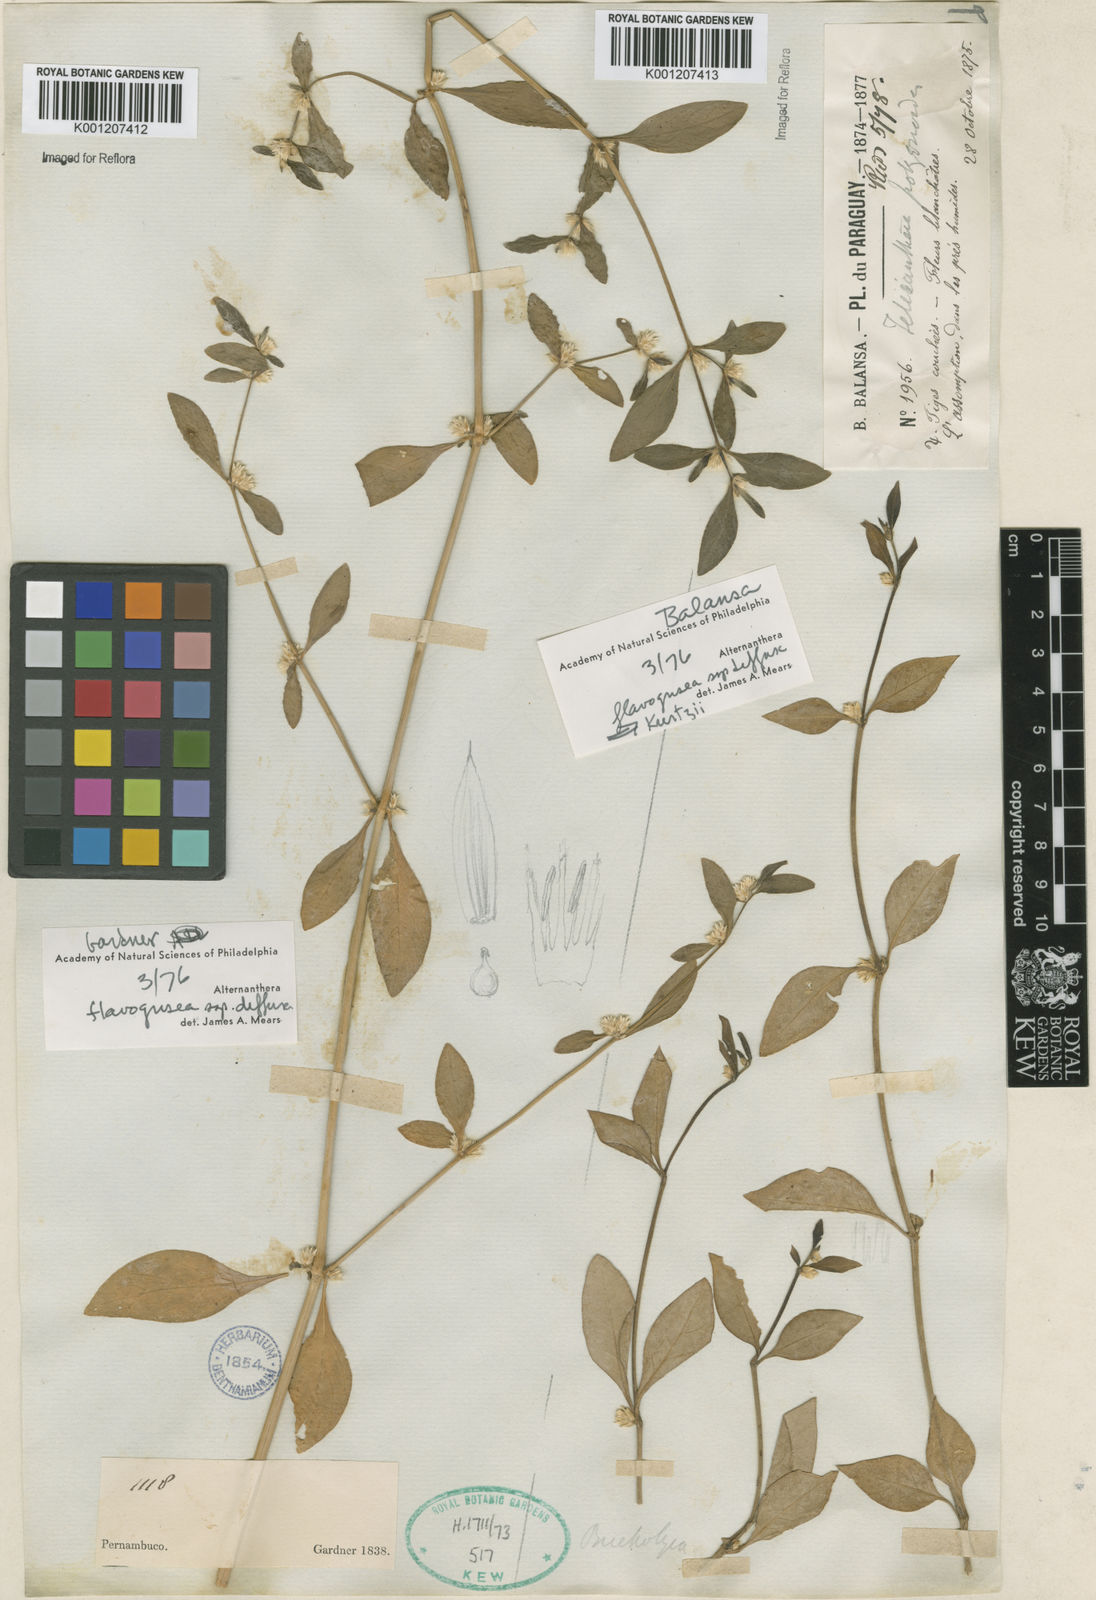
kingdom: Plantae
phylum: Tracheophyta
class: Magnoliopsida
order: Caryophyllales
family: Amaranthaceae
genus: Alternanthera
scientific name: Alternanthera halimifolia
